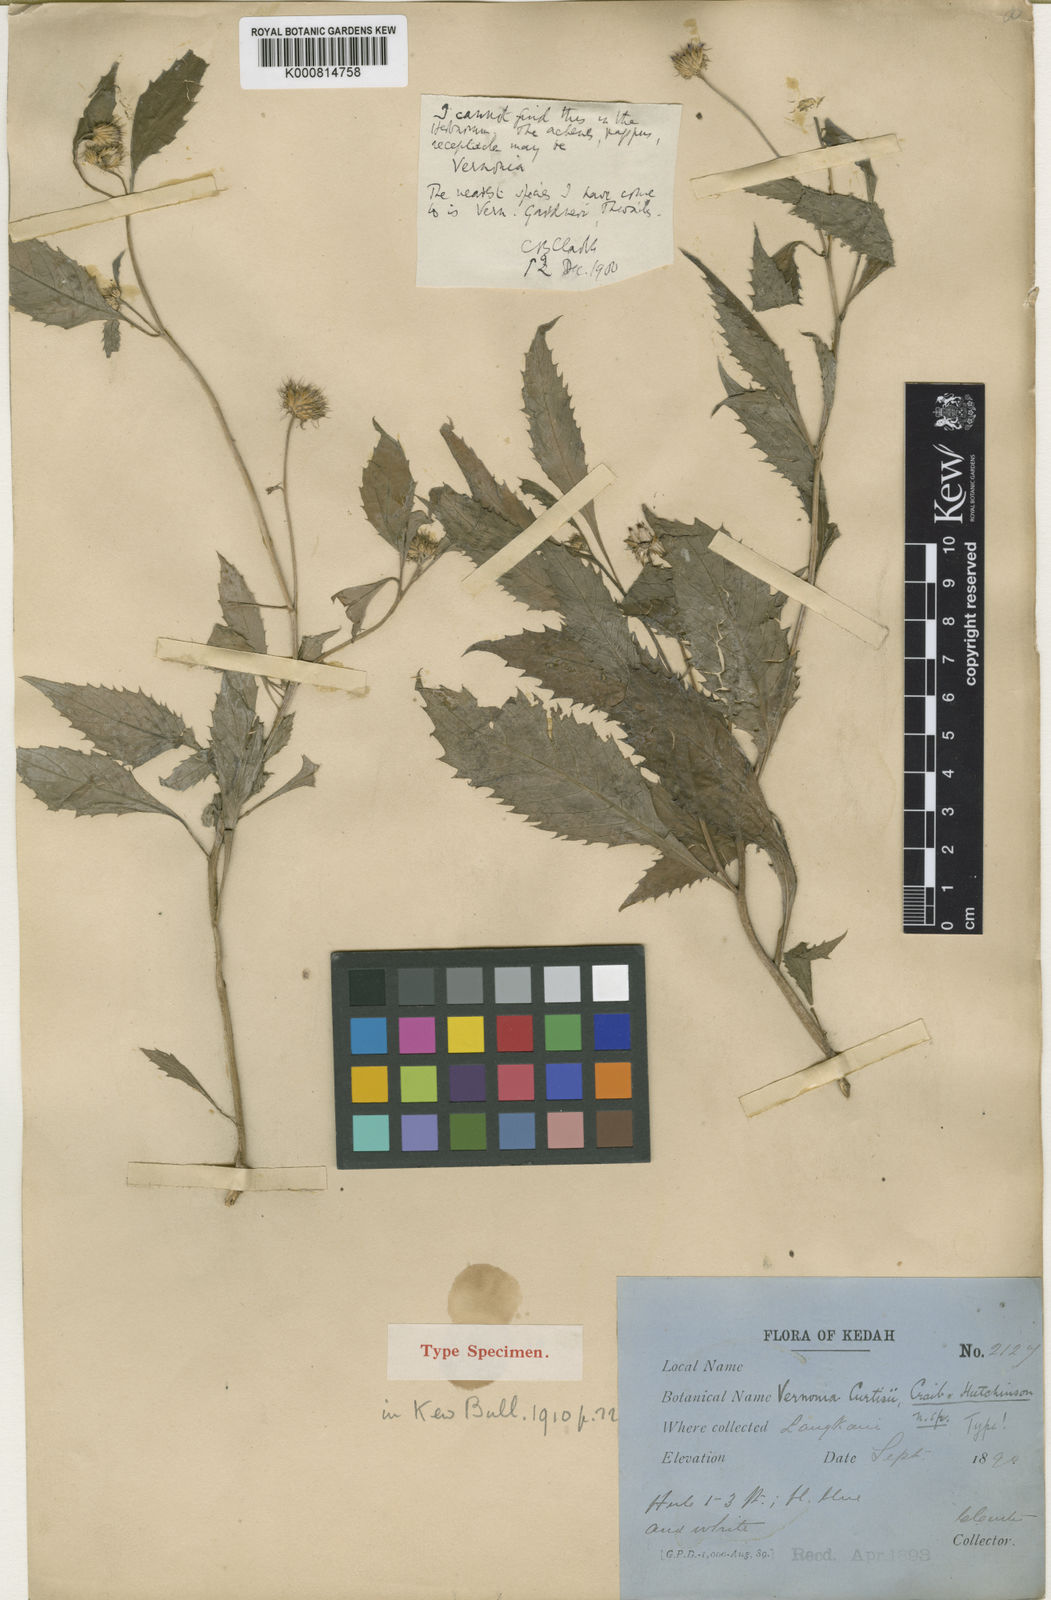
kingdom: Plantae
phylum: Tracheophyta
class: Magnoliopsida
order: Asterales
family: Asteraceae
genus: Koyamasia
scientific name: Koyamasia curtisii
